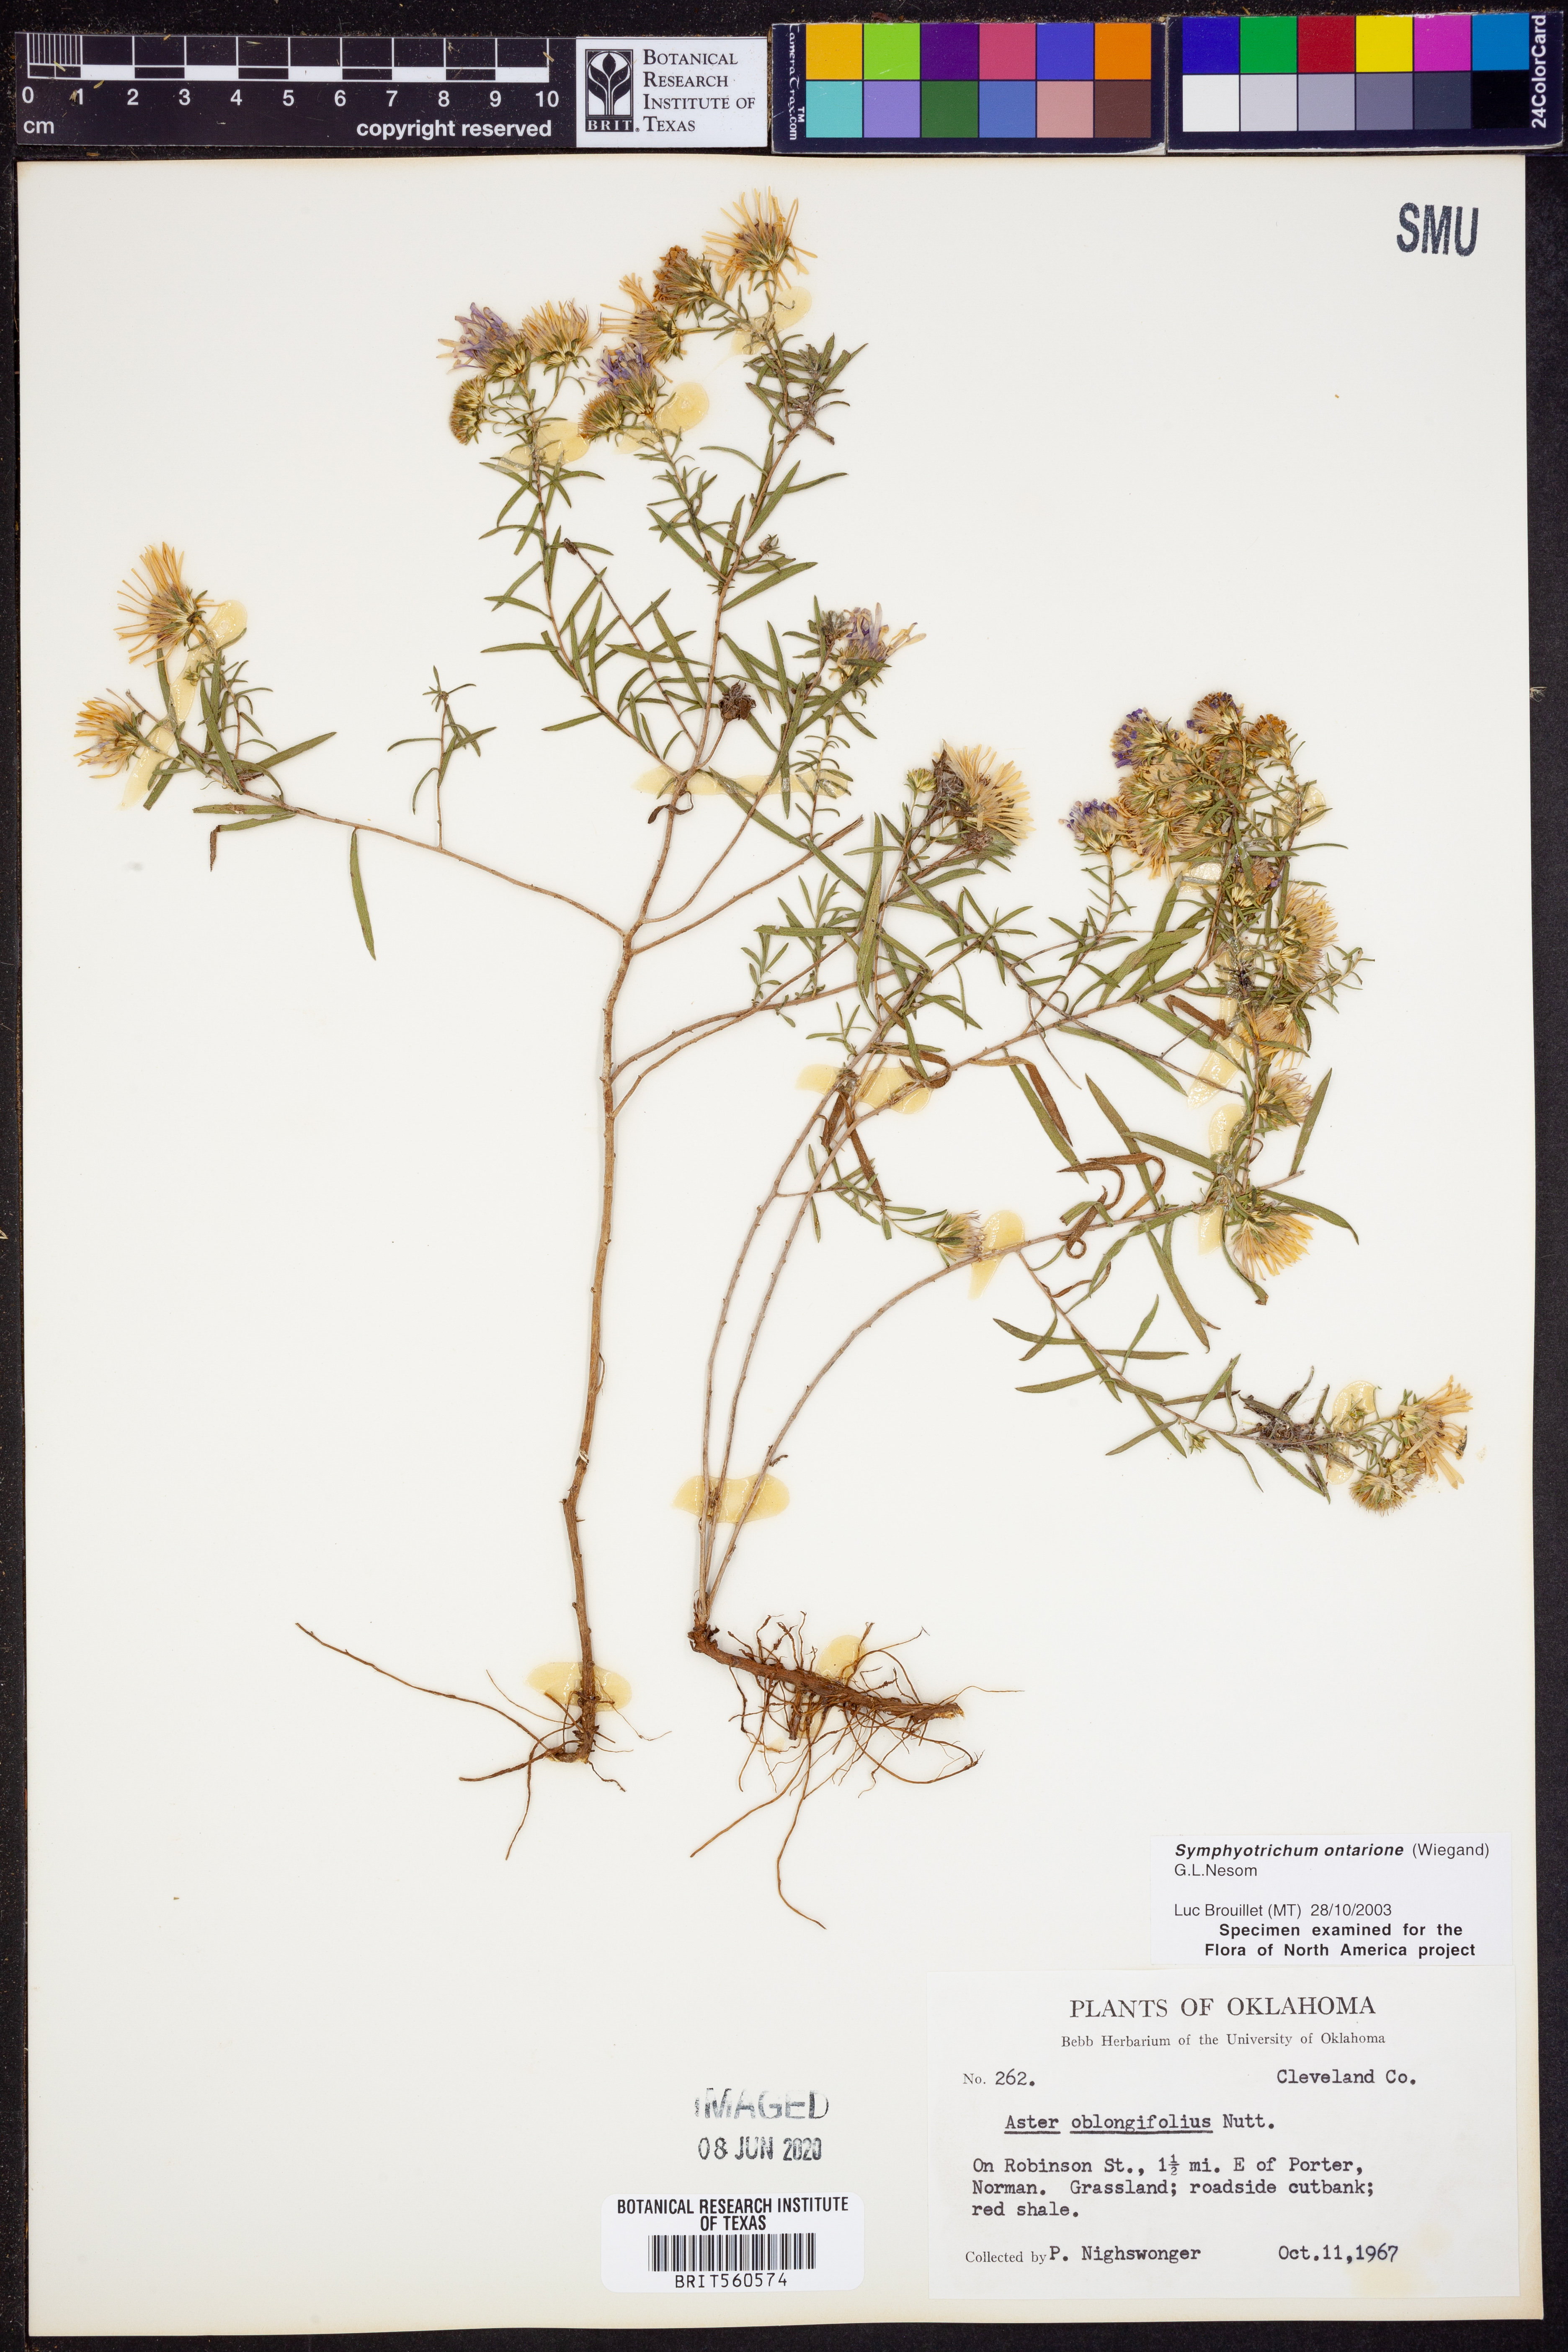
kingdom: Plantae
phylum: Tracheophyta
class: Magnoliopsida
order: Asterales
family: Asteraceae
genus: Symphyotrichum
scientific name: Symphyotrichum ontarionis
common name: Bottomland aster
